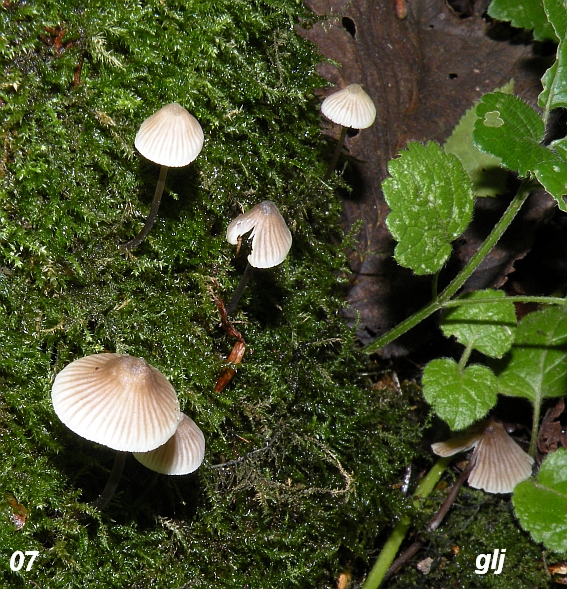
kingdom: Fungi
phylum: Basidiomycota
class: Agaricomycetes
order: Agaricales
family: Mycenaceae
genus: Mycena
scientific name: Mycena arcangeliana
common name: oliven-huesvamp
